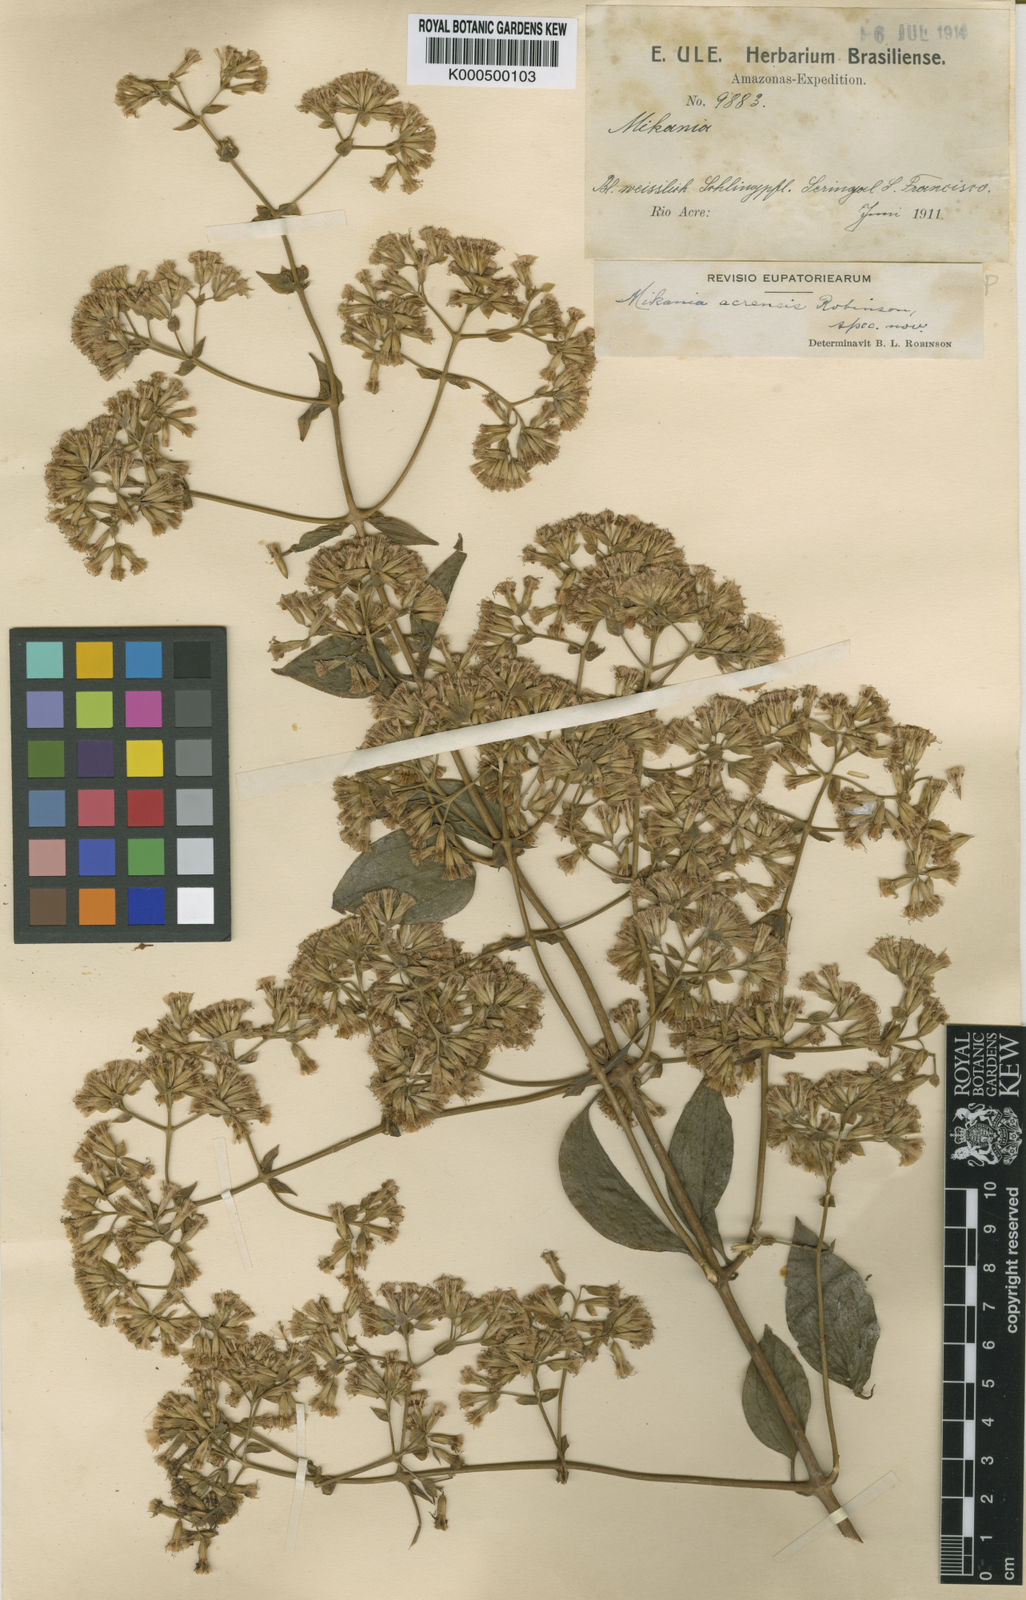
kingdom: Plantae
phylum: Tracheophyta
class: Magnoliopsida
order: Asterales
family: Asteraceae
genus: Mikania
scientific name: Mikania lindleyana
